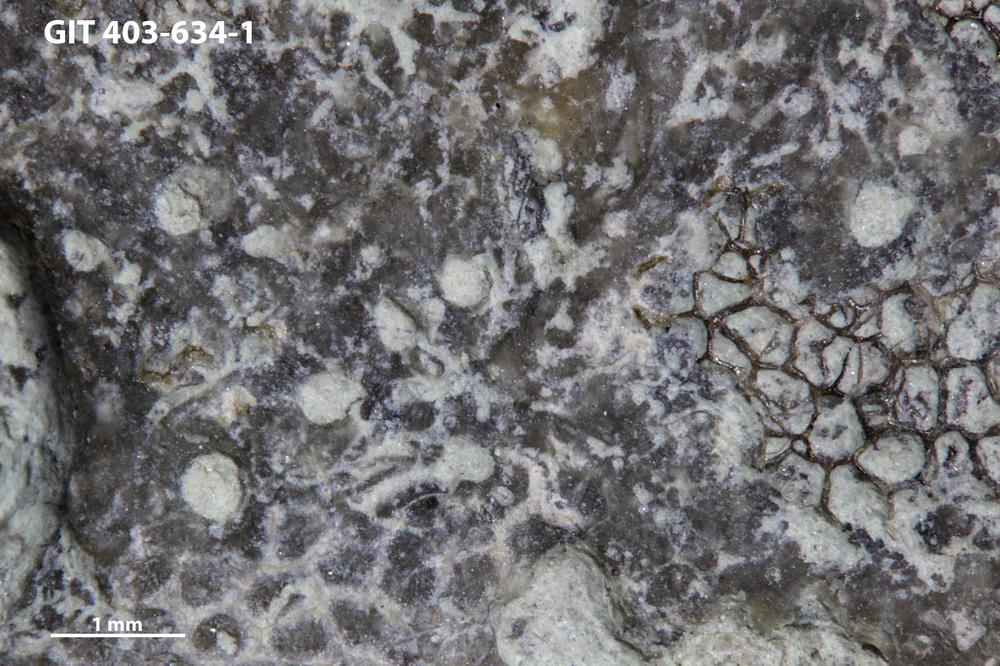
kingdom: Animalia
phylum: Sipuncula
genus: Trypanites
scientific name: Trypanites
